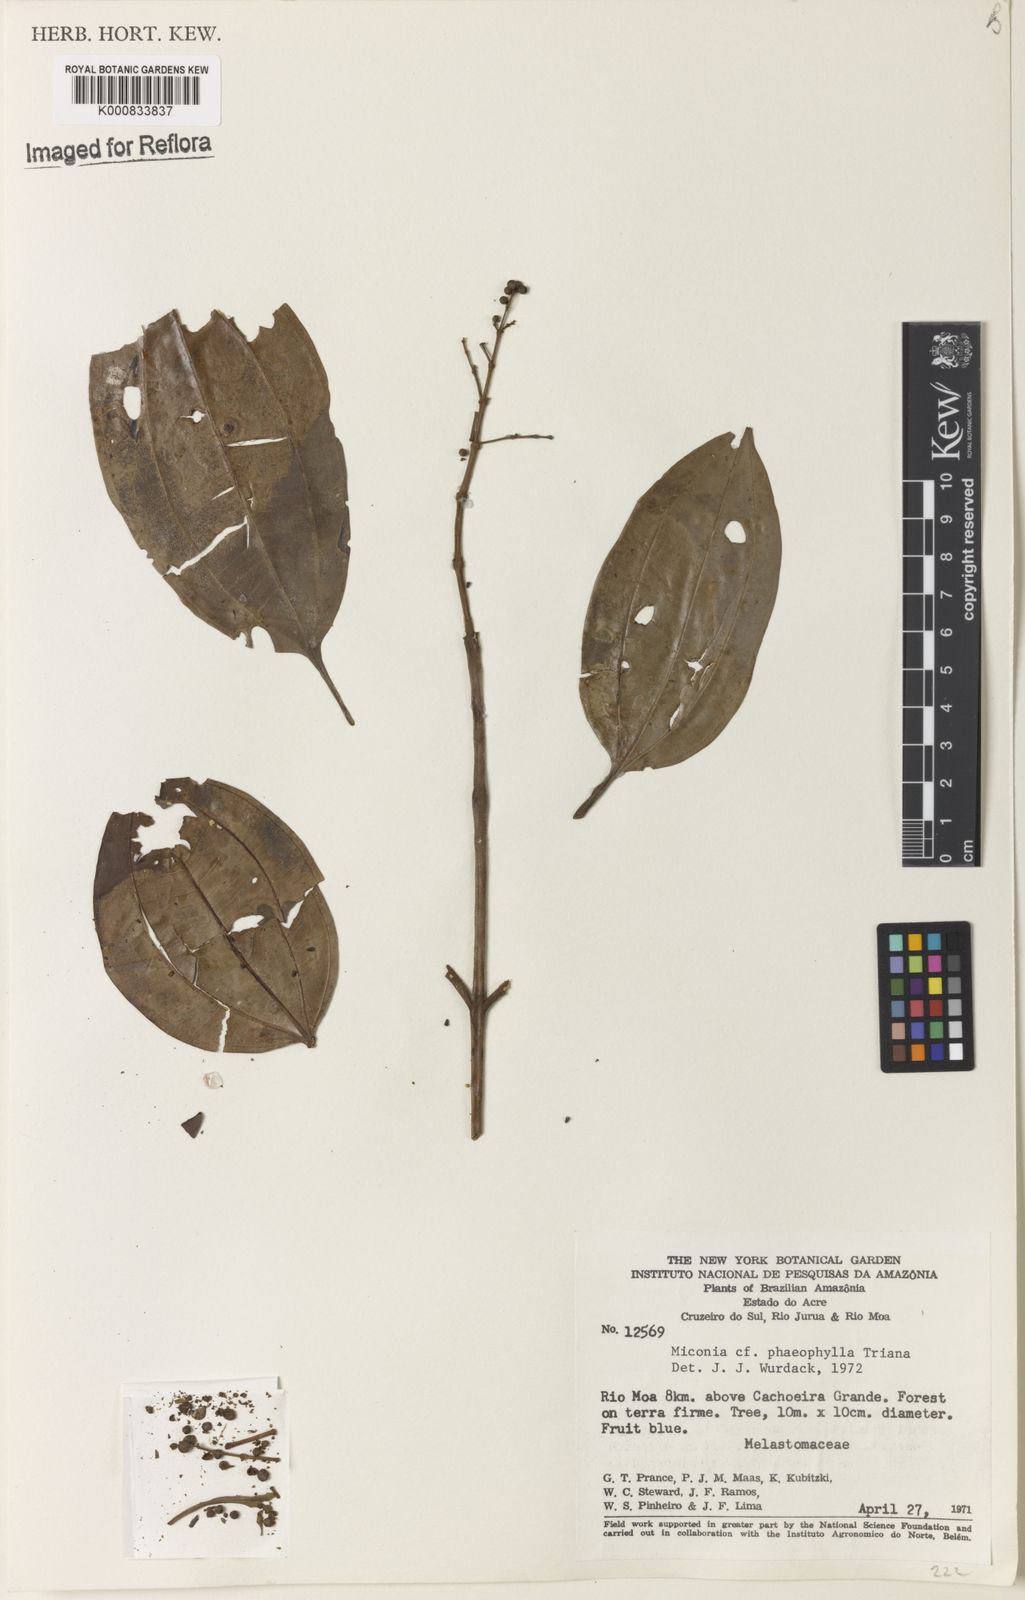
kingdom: Plantae
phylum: Tracheophyta
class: Magnoliopsida
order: Myrtales
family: Melastomataceae
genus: Miconia
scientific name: Miconia phaeophylla
